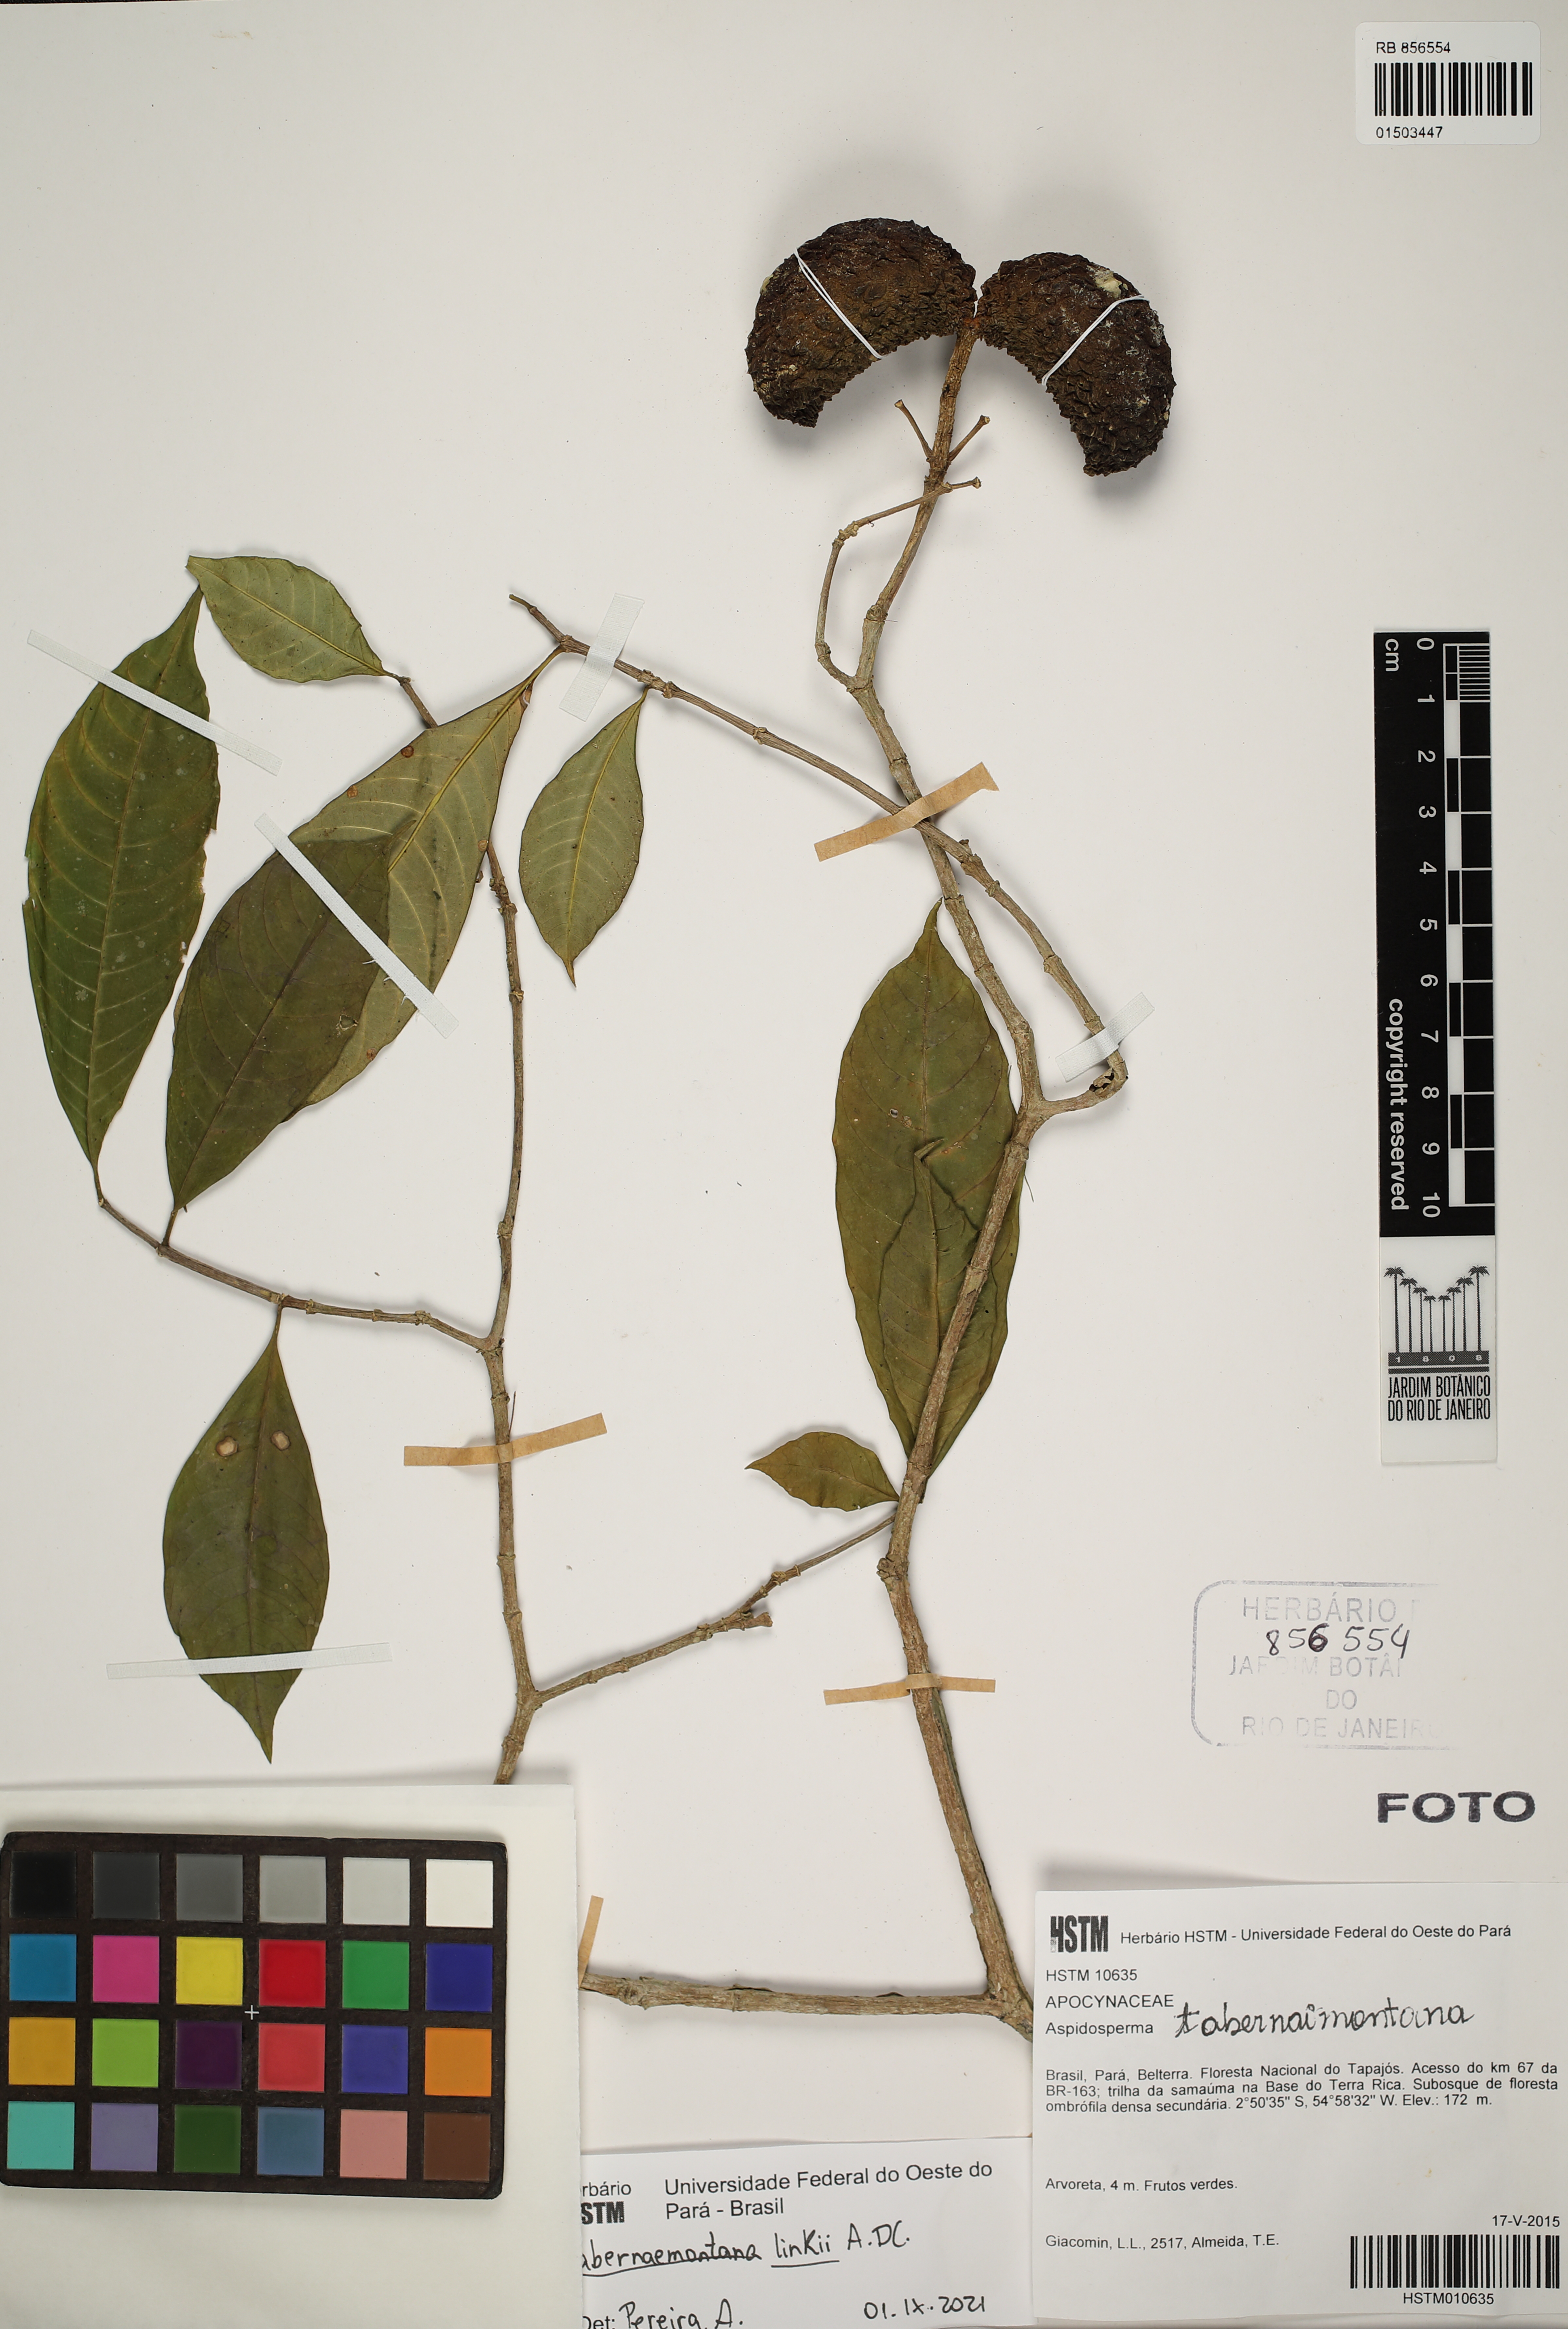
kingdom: Plantae
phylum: Tracheophyta
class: Magnoliopsida
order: Gentianales
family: Apocynaceae
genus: Tabernaemontana
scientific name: Tabernaemontana linkii
